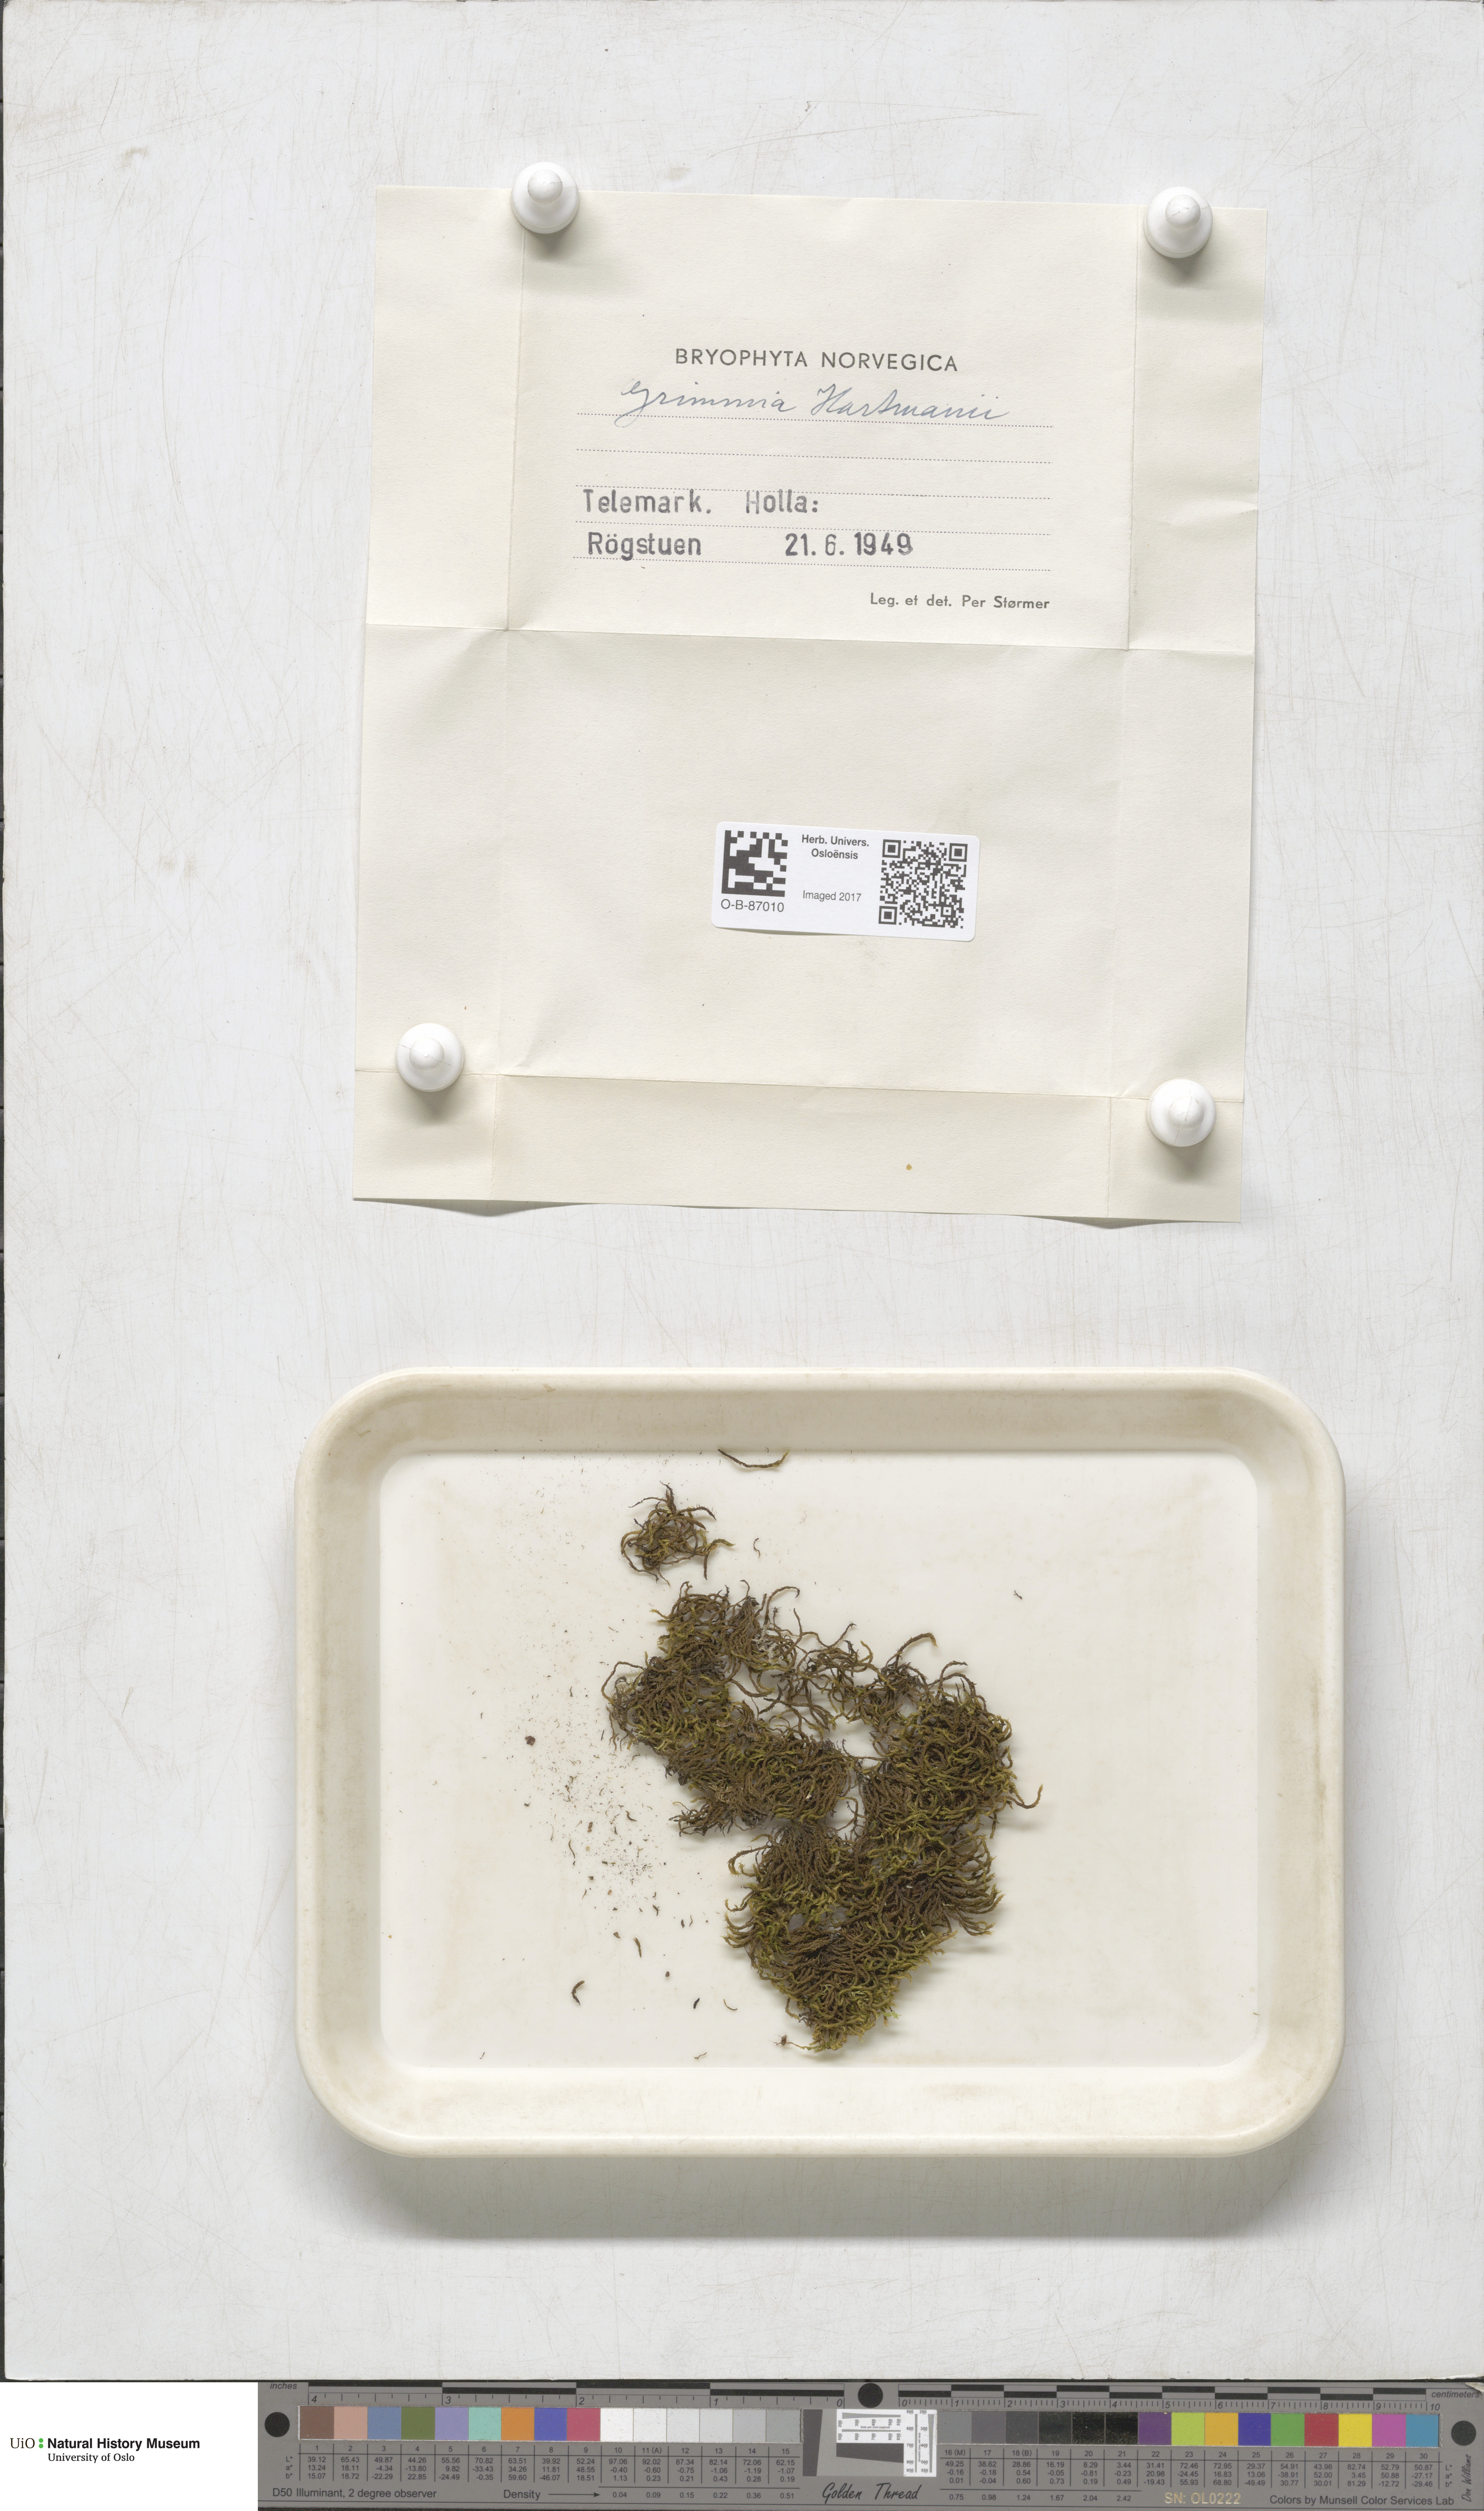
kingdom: Plantae
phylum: Bryophyta
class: Bryopsida
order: Grimmiales
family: Grimmiaceae
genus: Grimmia
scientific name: Grimmia hartmanii
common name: Hartman's grimmia
